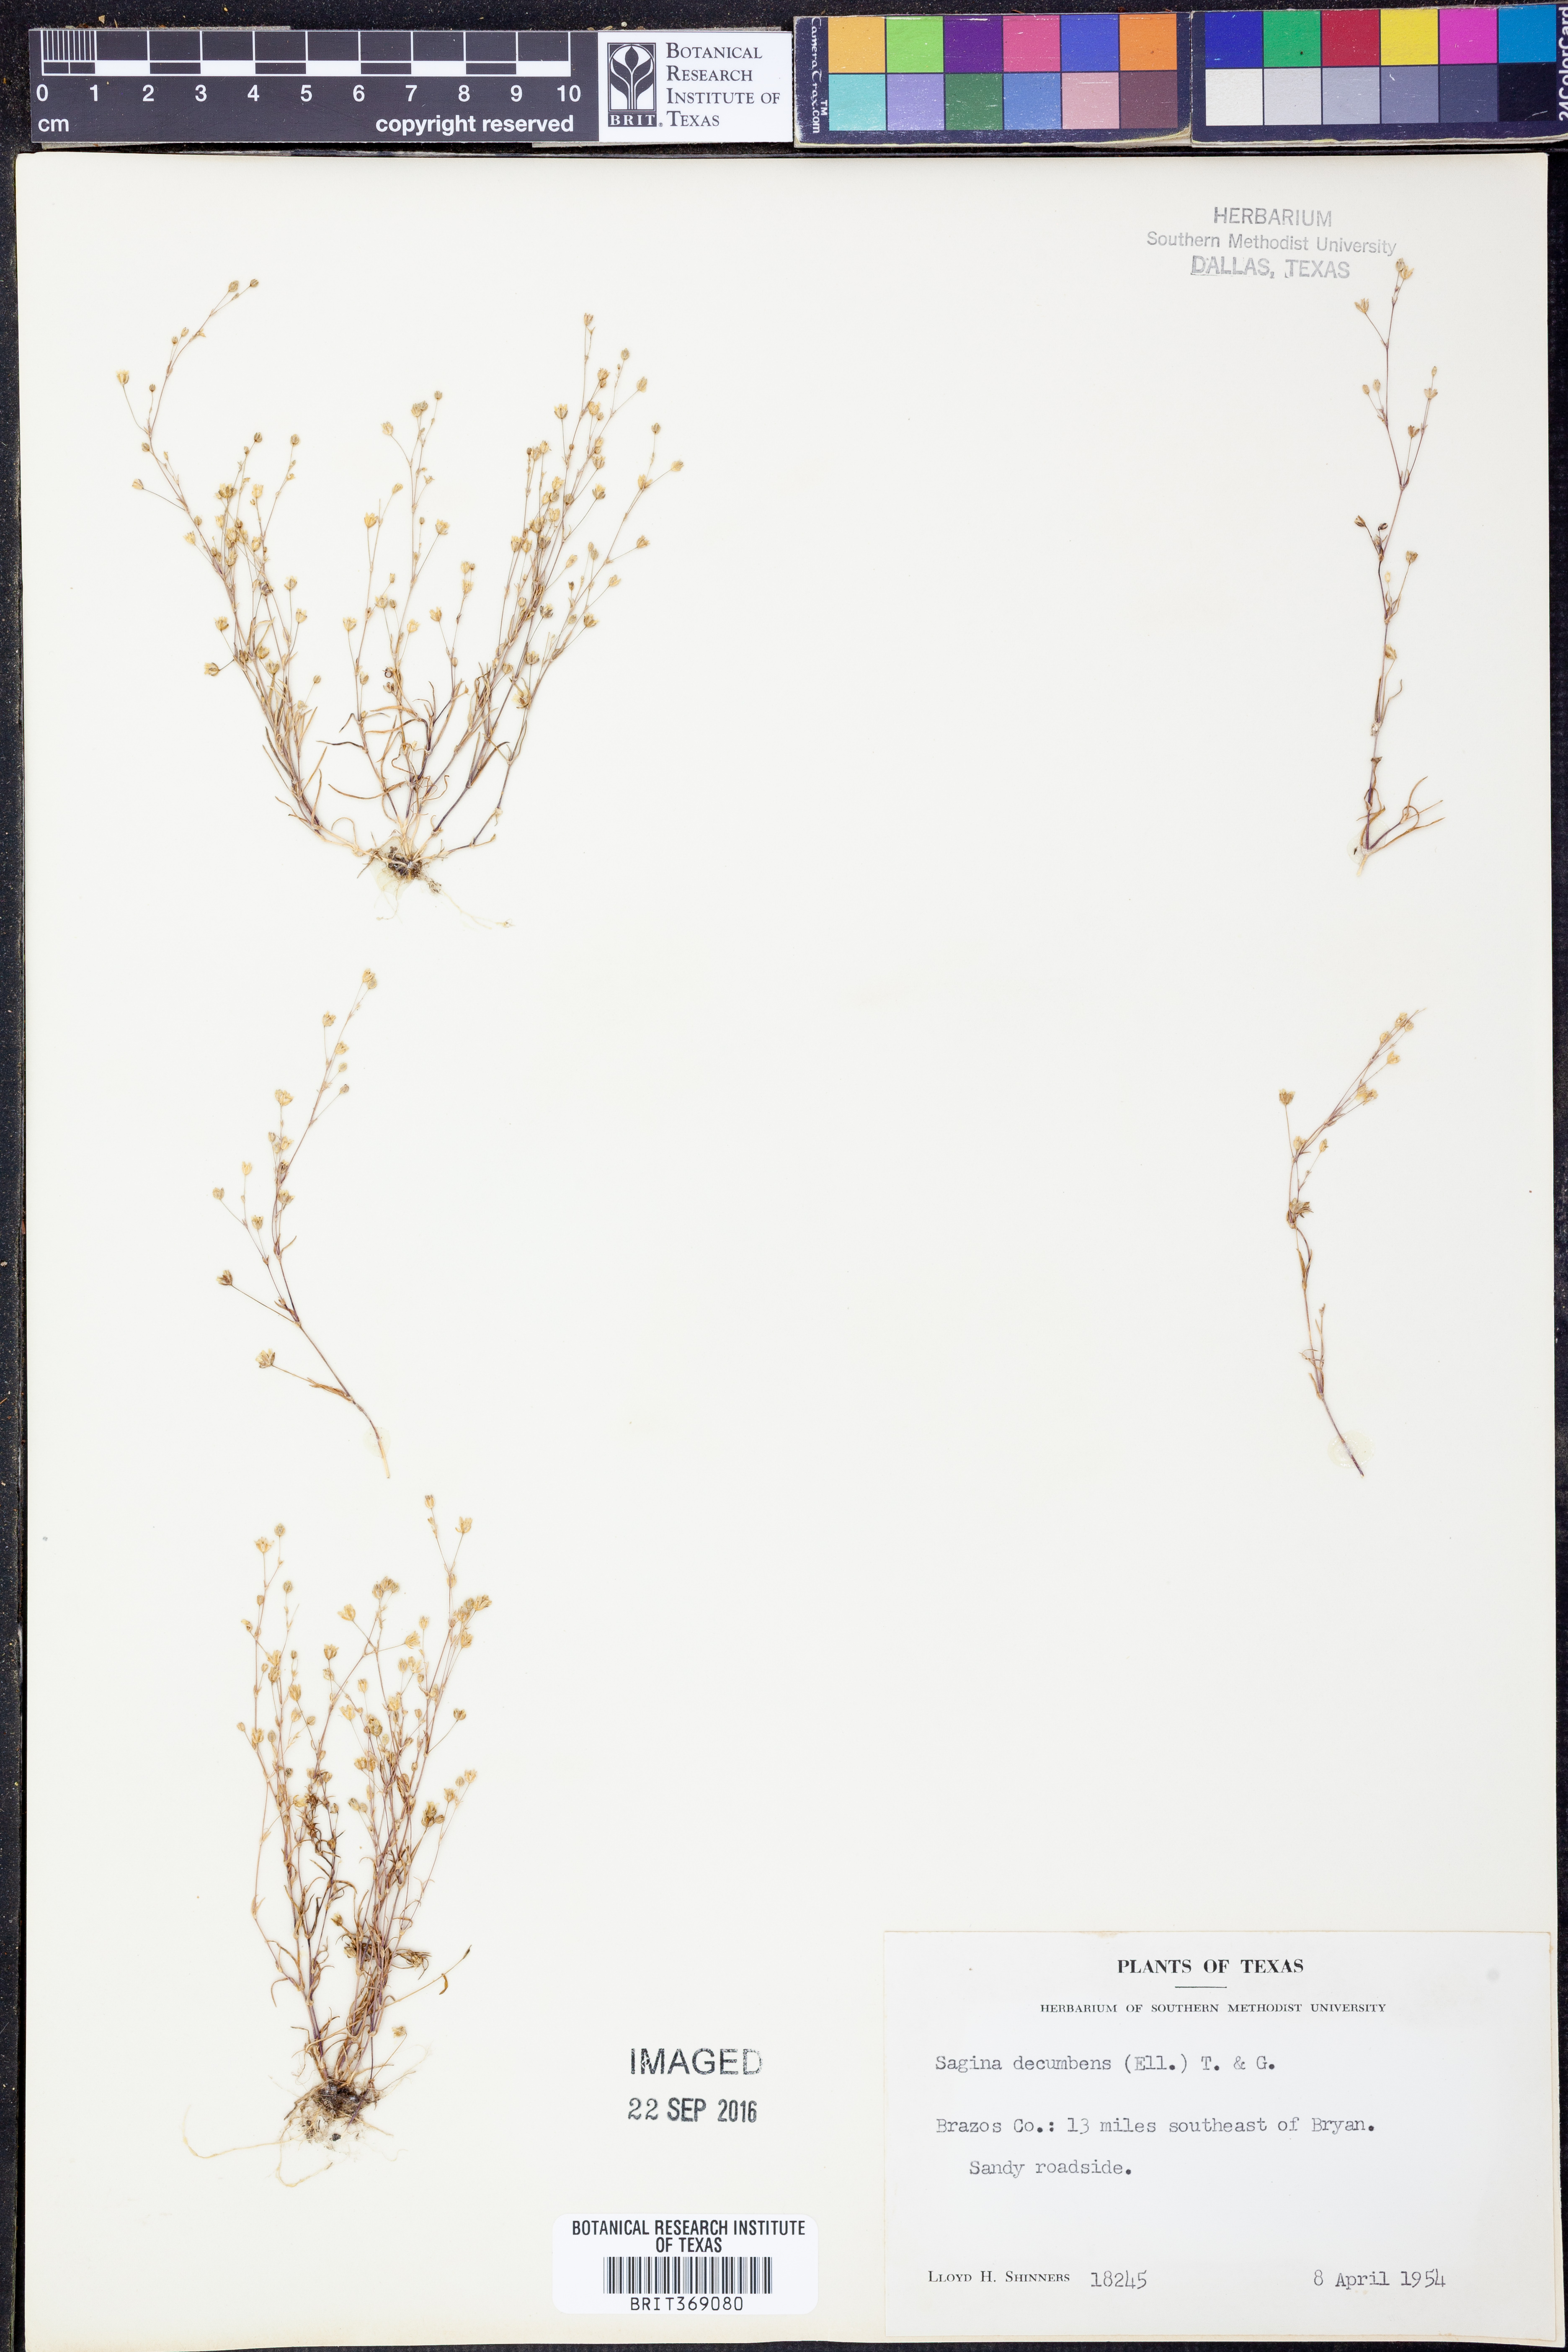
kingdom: Plantae
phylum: Tracheophyta
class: Magnoliopsida
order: Caryophyllales
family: Caryophyllaceae
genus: Sagina
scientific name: Sagina decumbens
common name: Decumbent pearlwort
